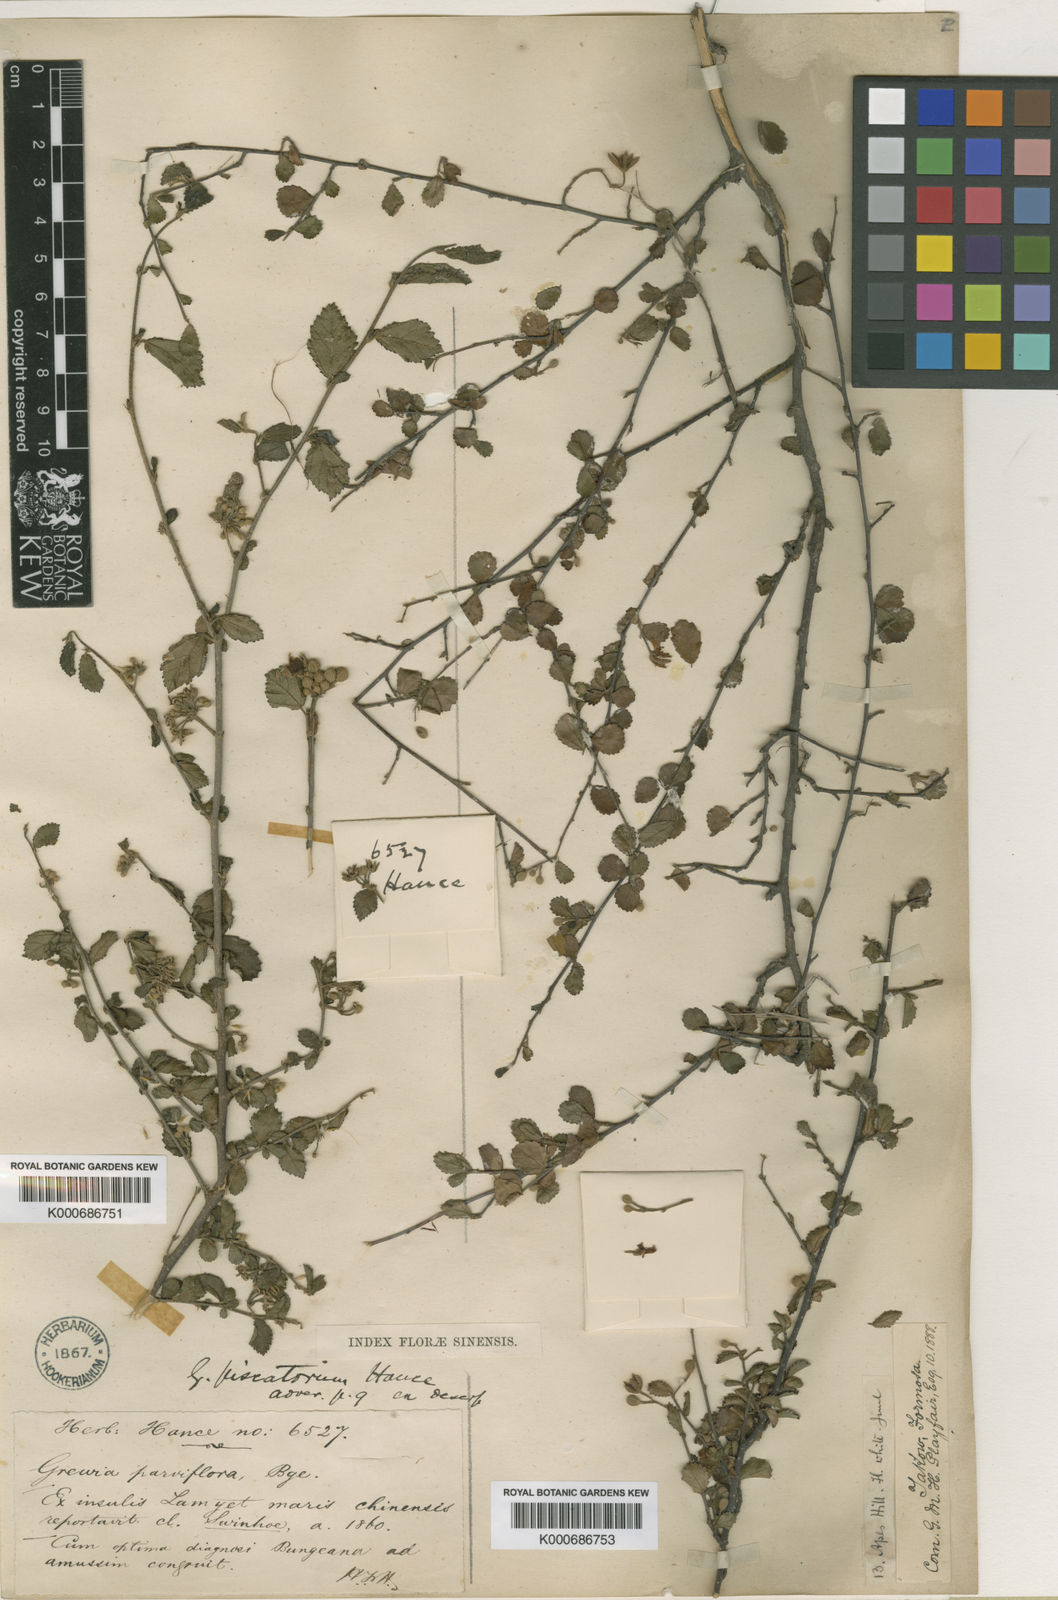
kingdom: Plantae
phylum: Tracheophyta
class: Magnoliopsida
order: Malvales
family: Malvaceae
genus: Grewia
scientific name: Grewia piscatorum
